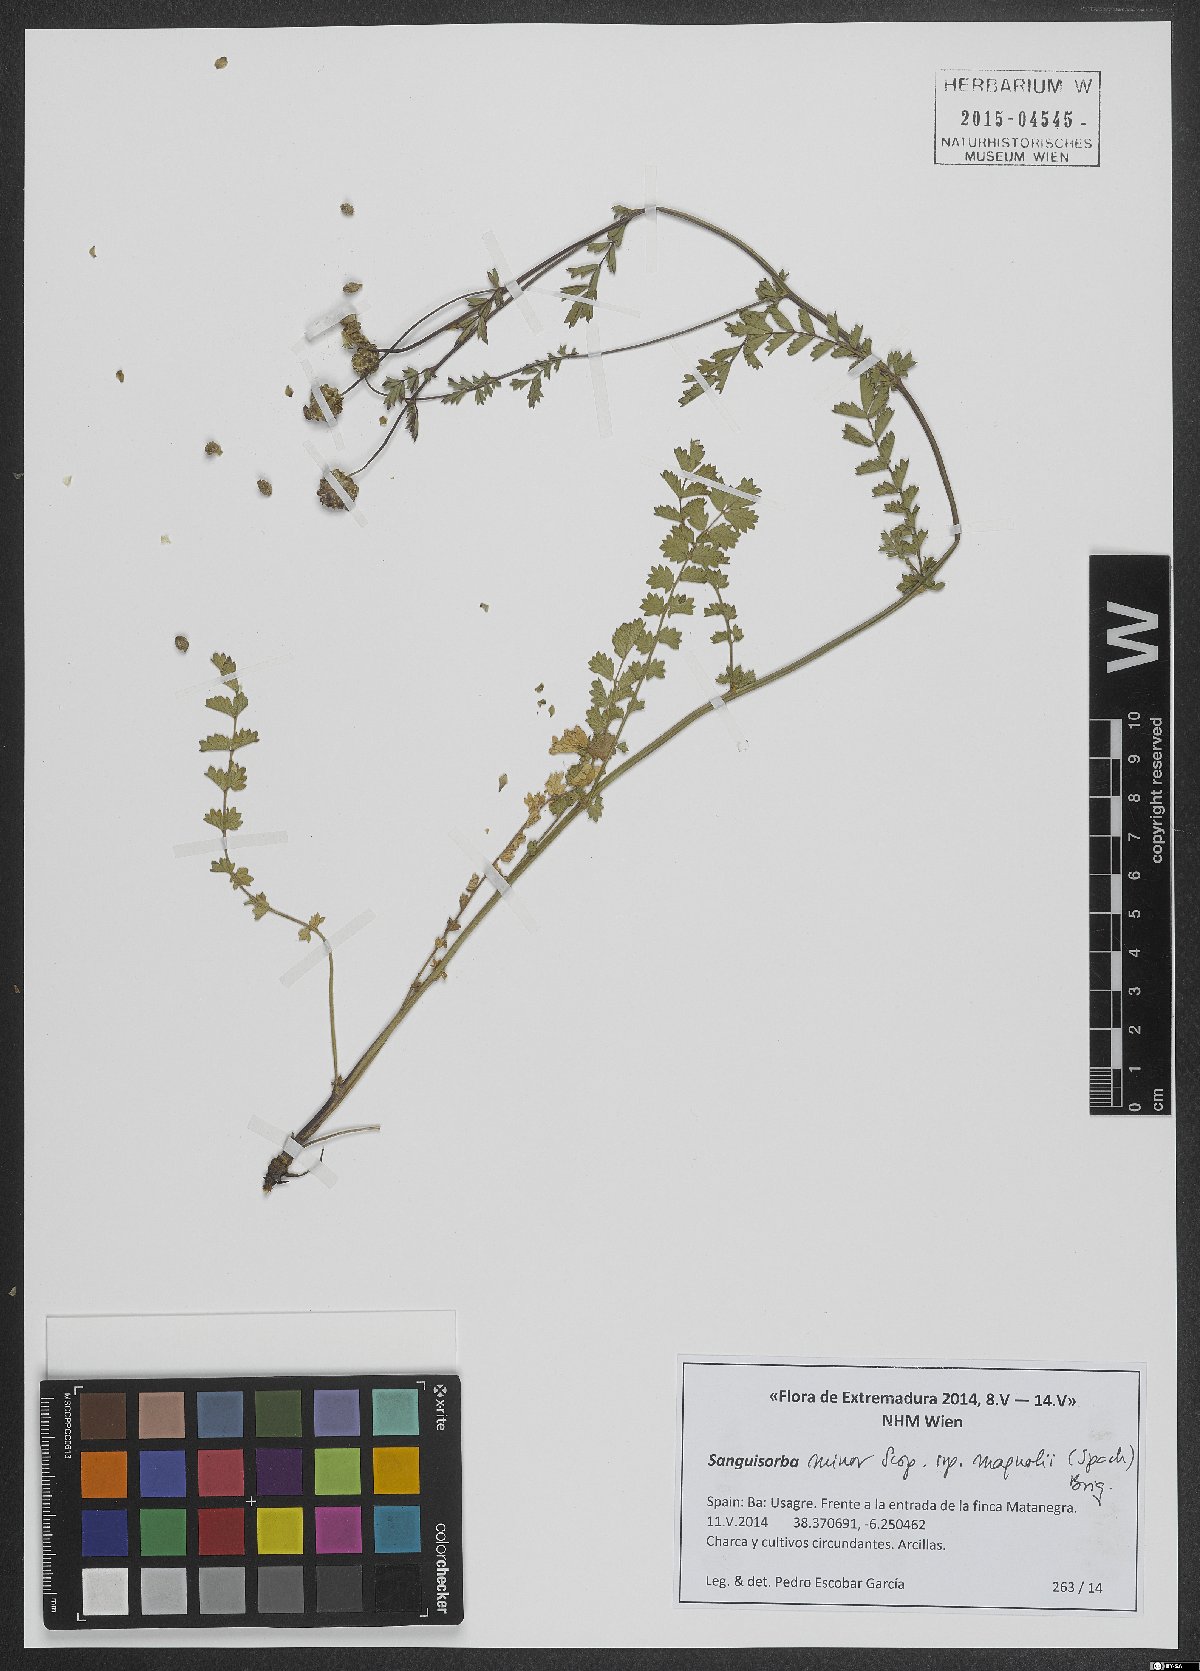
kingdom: Plantae
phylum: Tracheophyta
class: Magnoliopsida
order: Rosales
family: Rosaceae
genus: Poterium
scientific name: Poterium verrucosum
